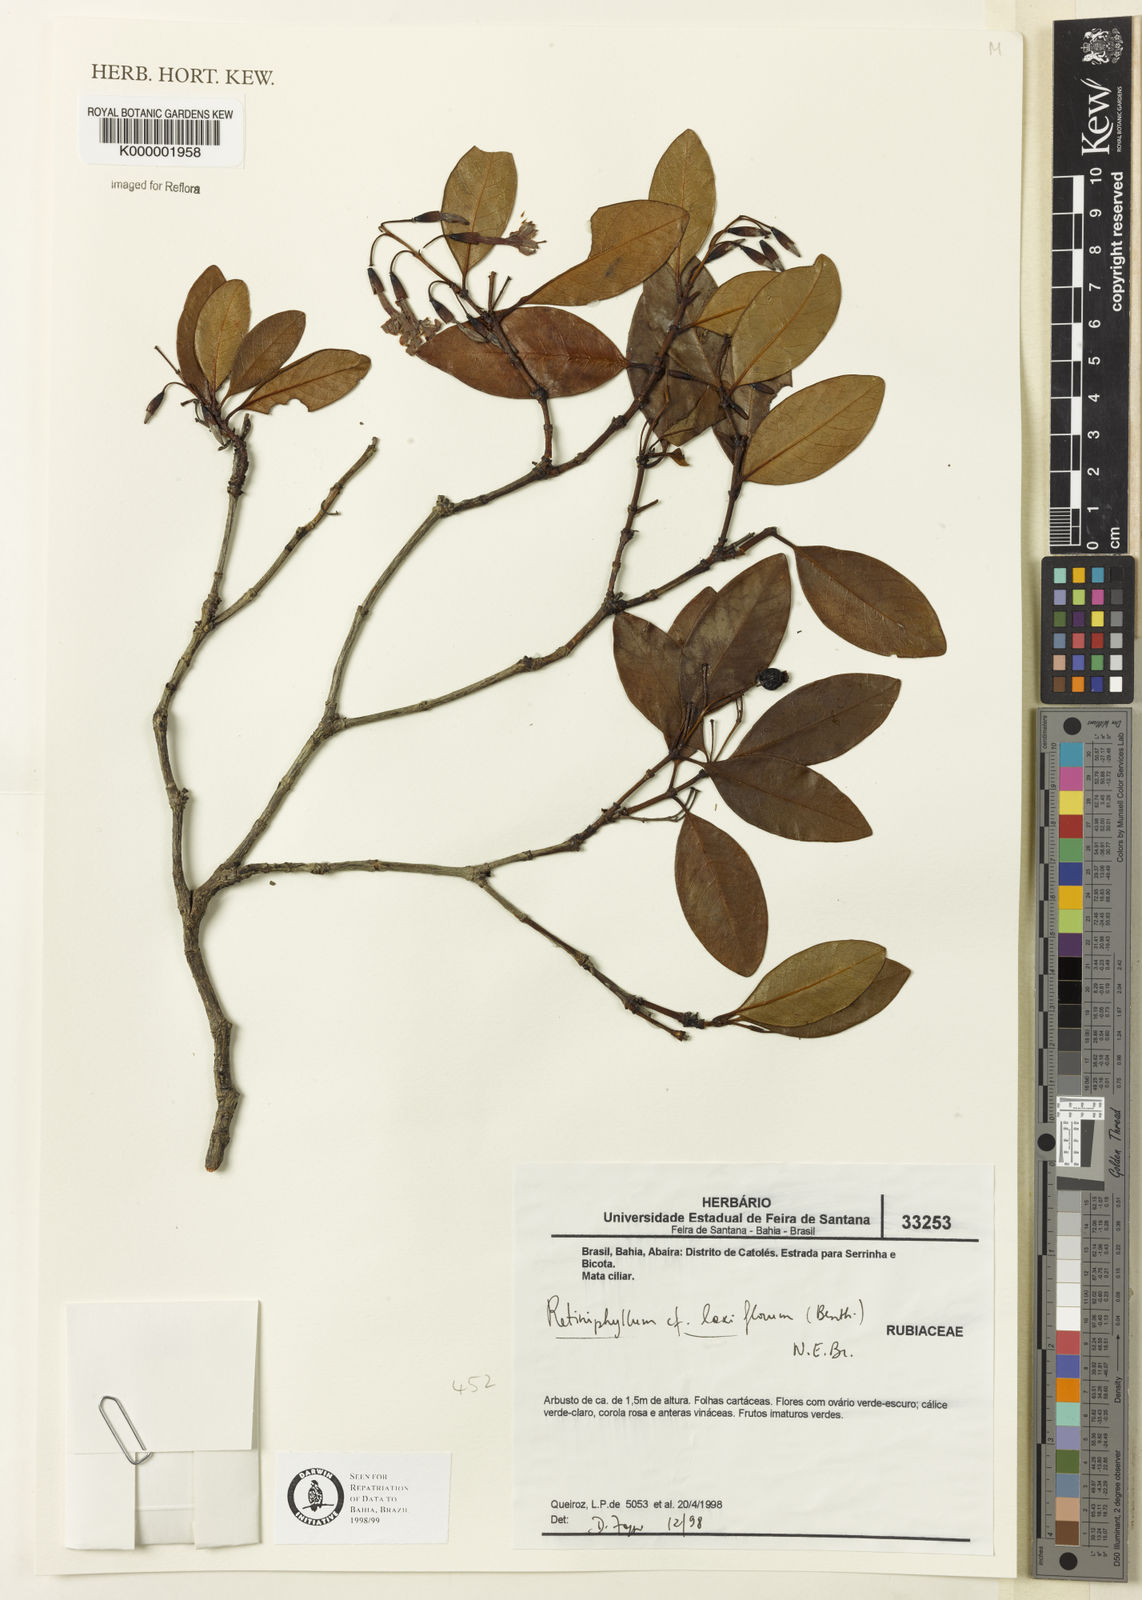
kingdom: Plantae
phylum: Tracheophyta
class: Magnoliopsida
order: Gentianales
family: Rubiaceae
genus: Retiniphyllum
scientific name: Retiniphyllum laxiflorum
